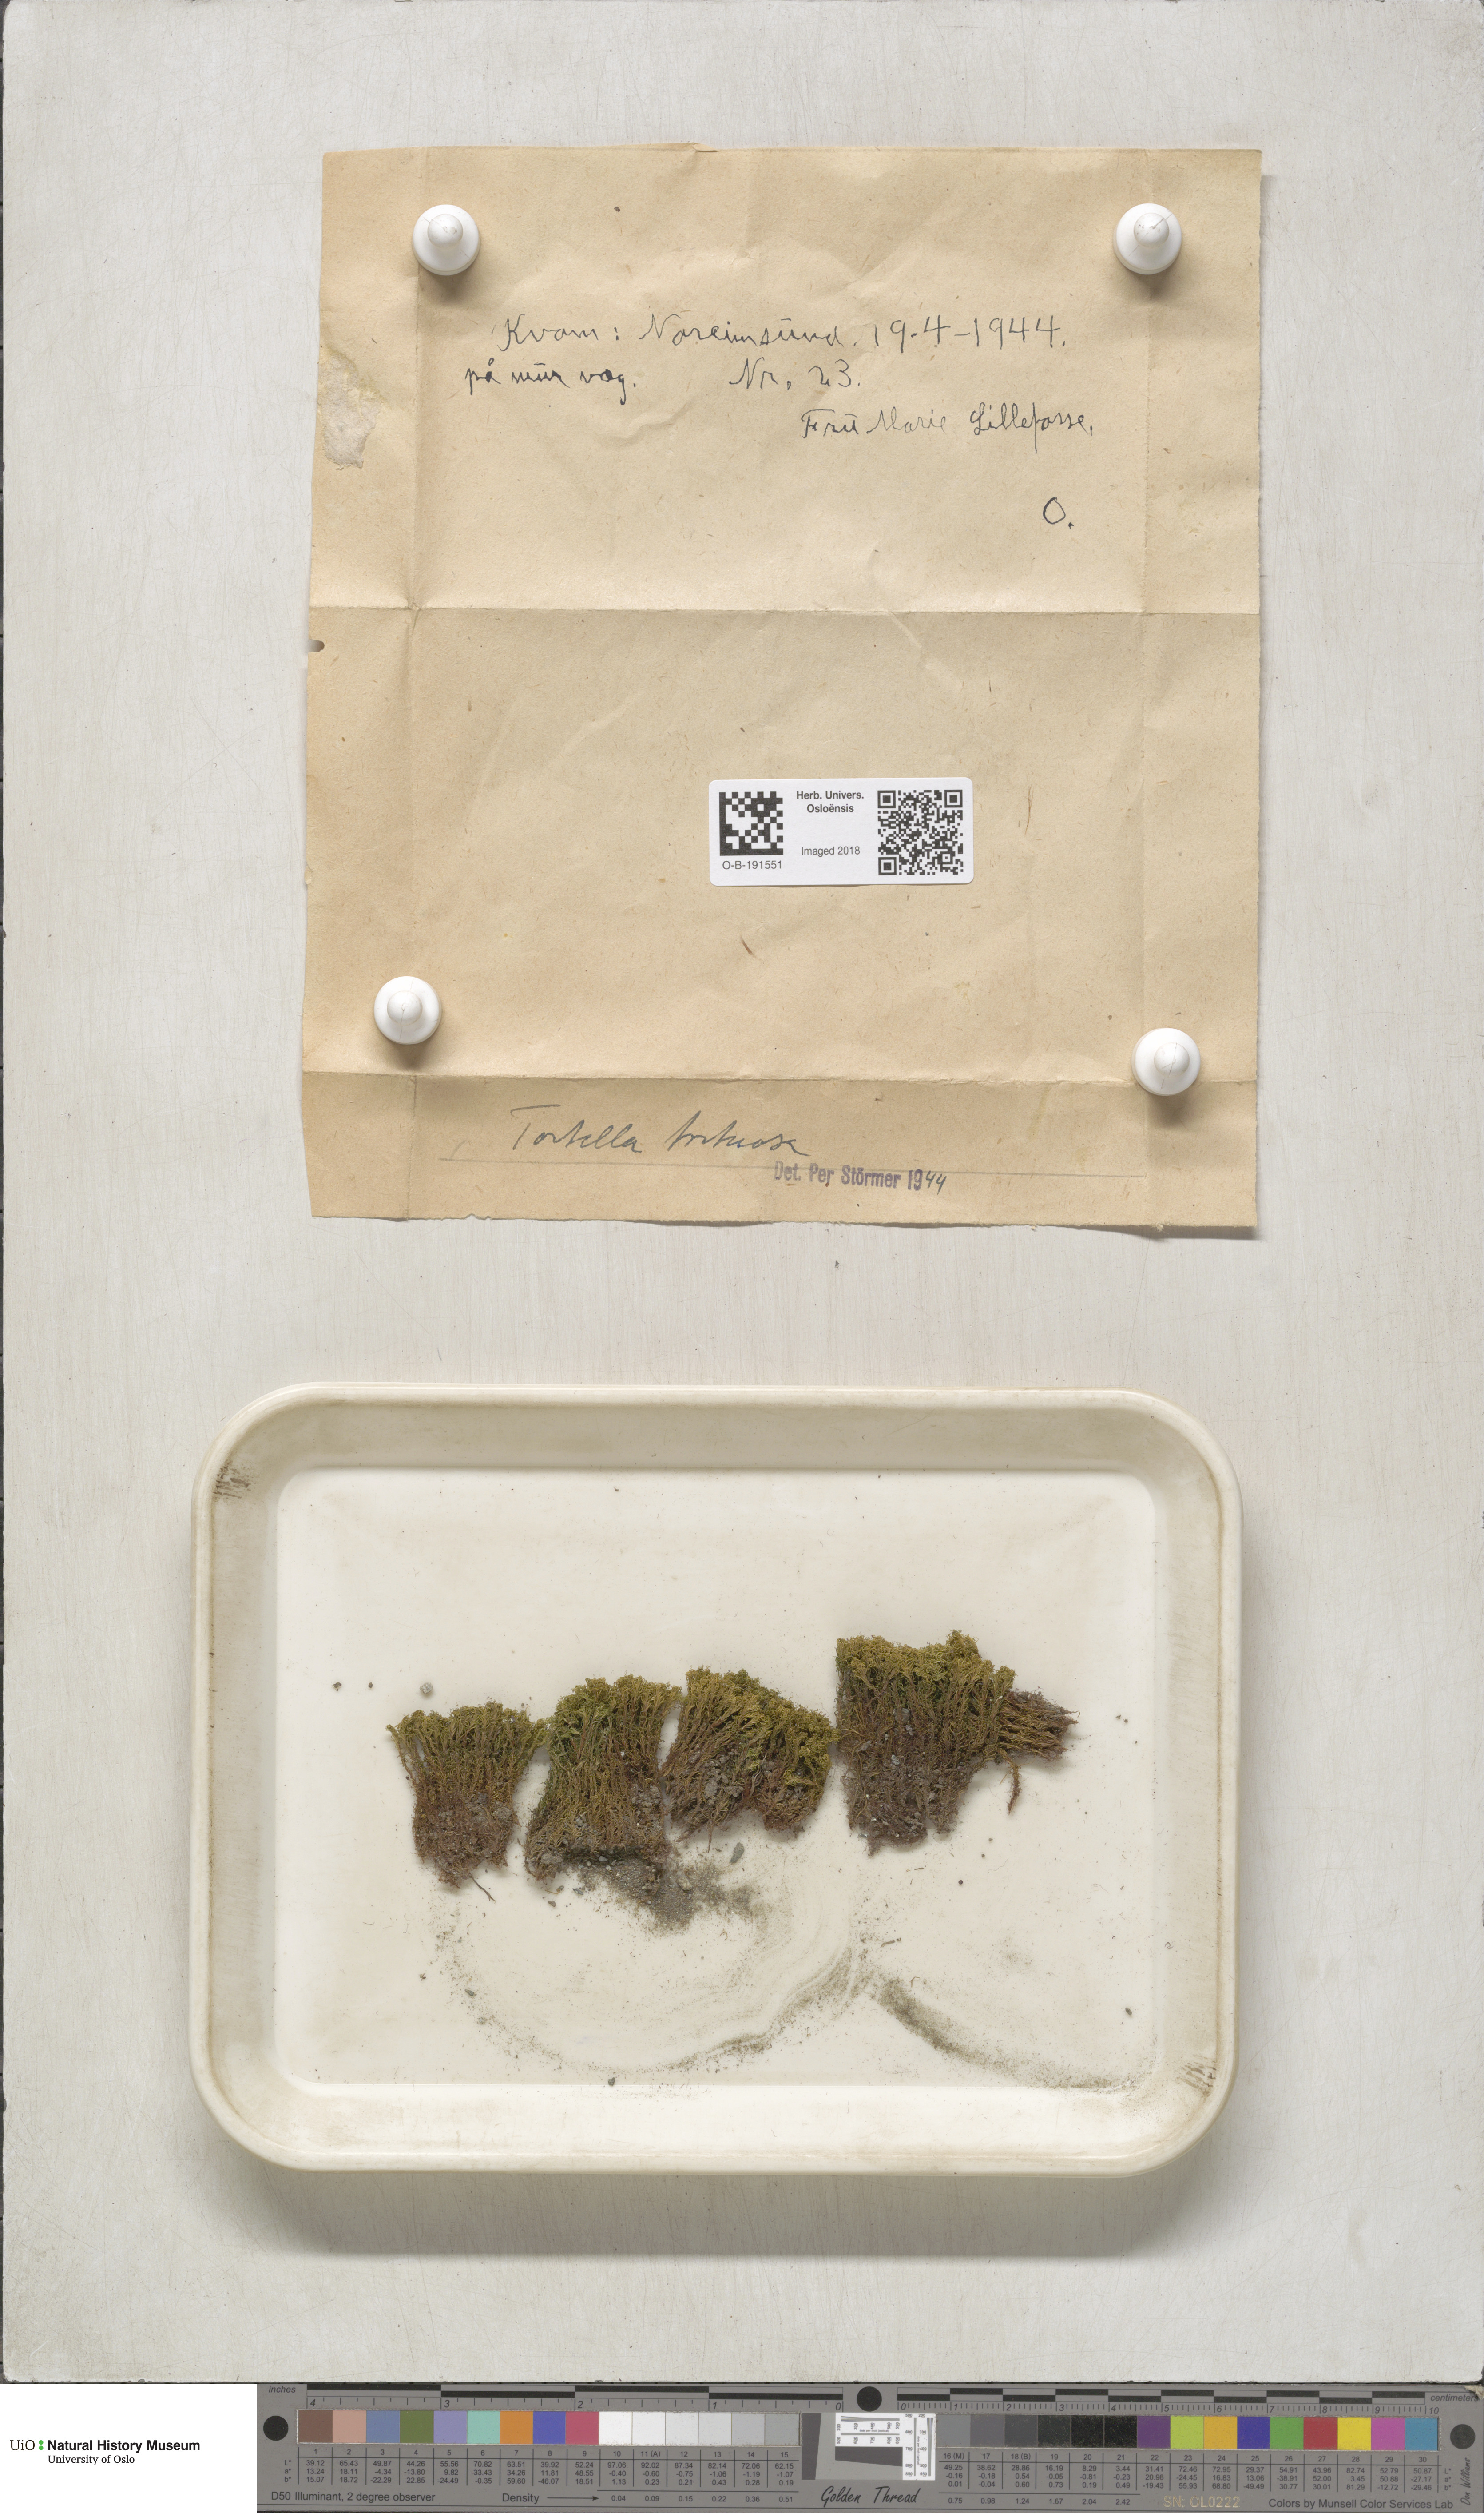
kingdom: Plantae
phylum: Bryophyta
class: Bryopsida
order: Pottiales
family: Pottiaceae
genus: Tortella
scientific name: Tortella tortuosa
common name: Frizzled crisp moss
